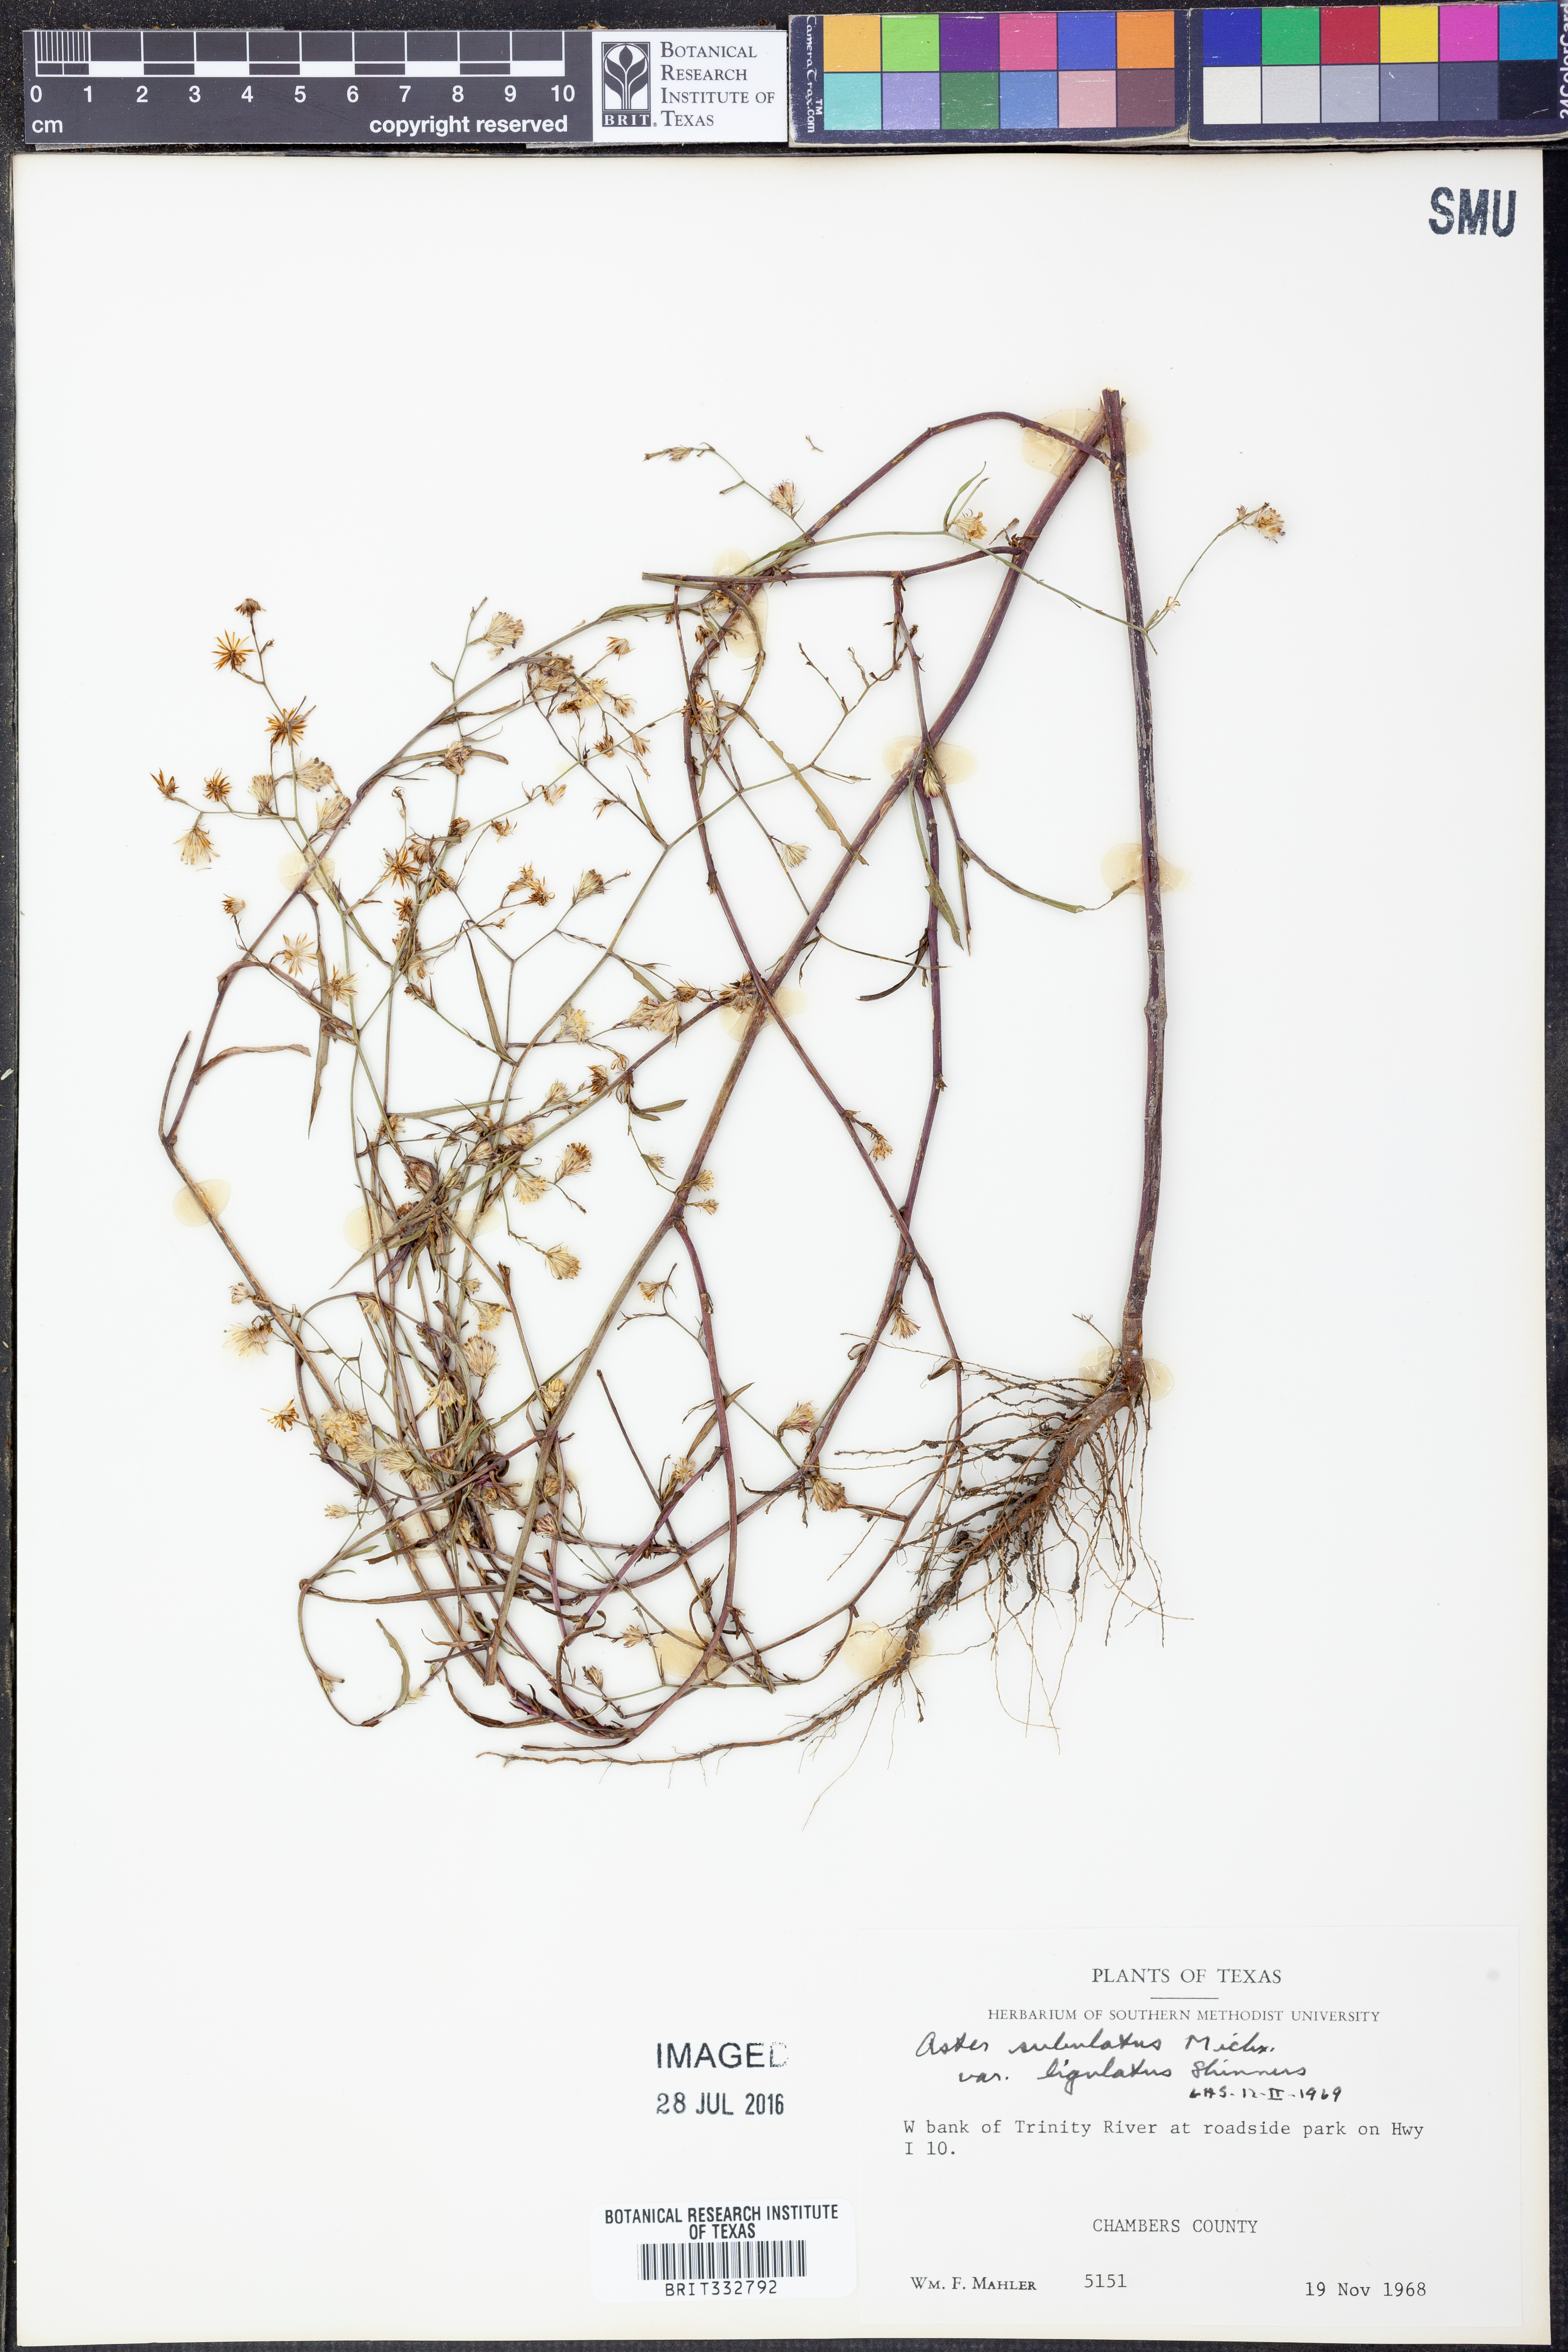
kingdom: Plantae
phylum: Tracheophyta
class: Magnoliopsida
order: Asterales
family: Asteraceae
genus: Symphyotrichum
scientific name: Symphyotrichum divaricatum
